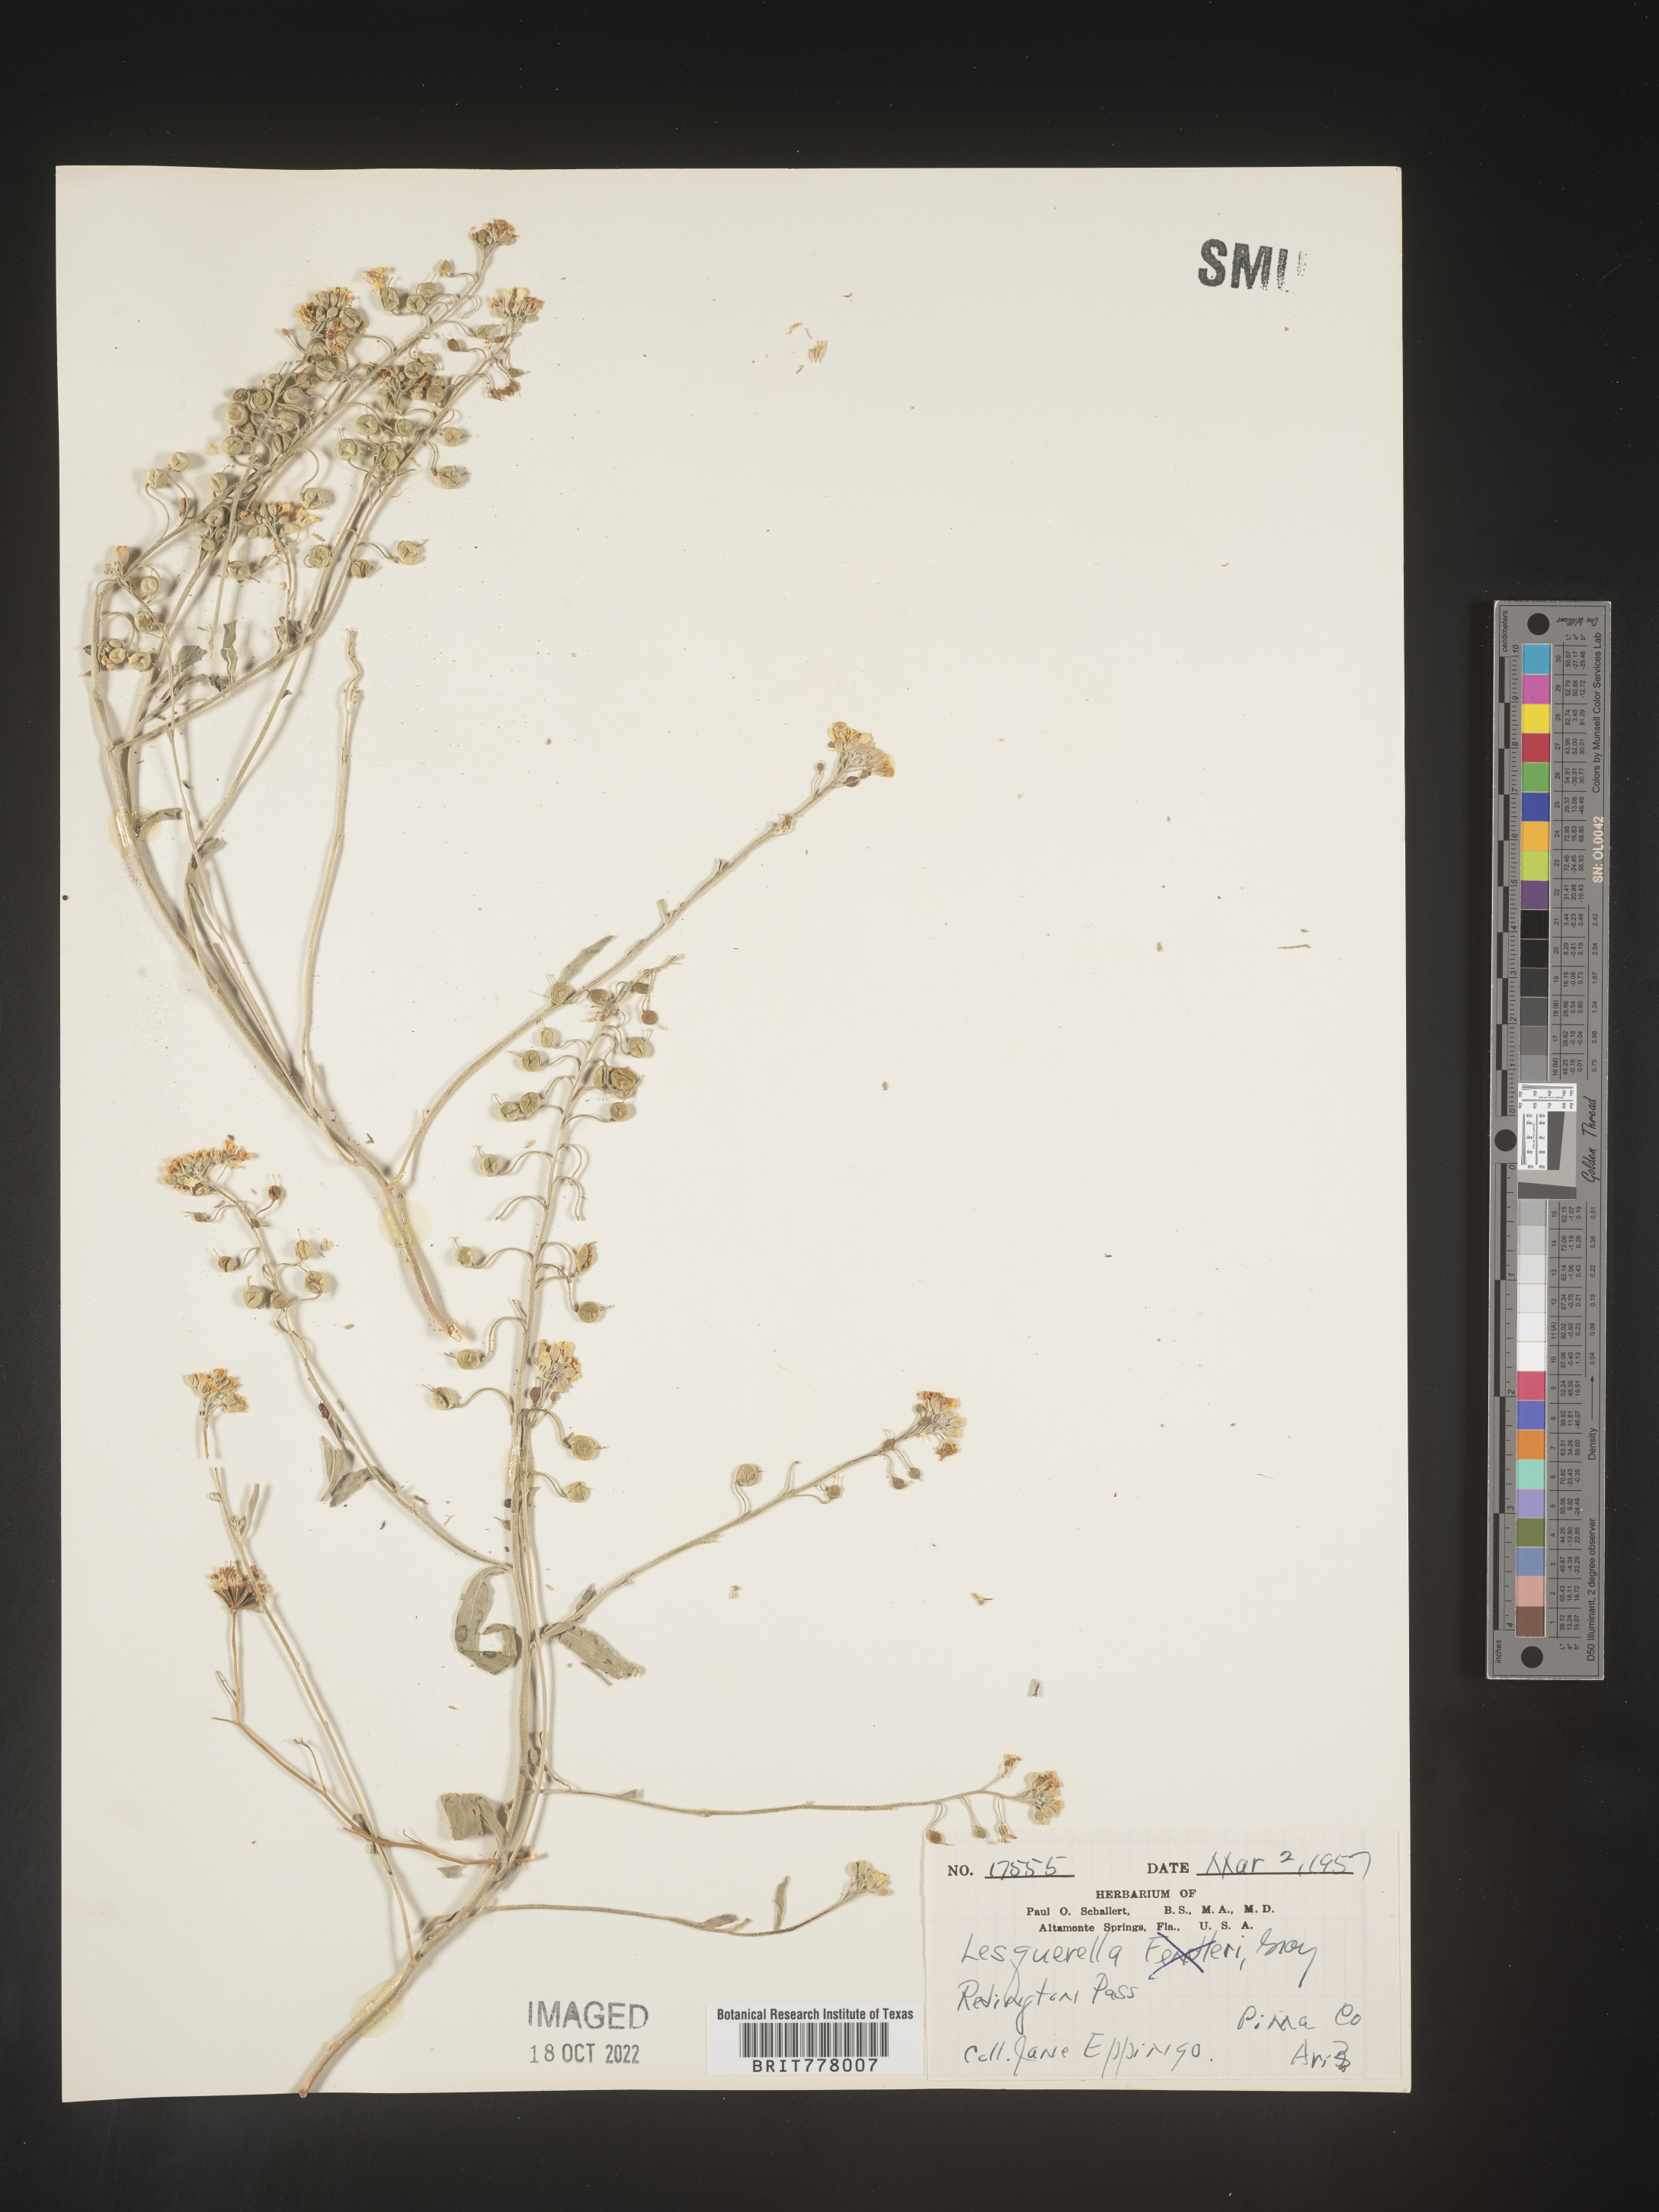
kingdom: Chromista
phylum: Cercozoa
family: Psammonobiotidae
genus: Lesquerella
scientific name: Lesquerella
